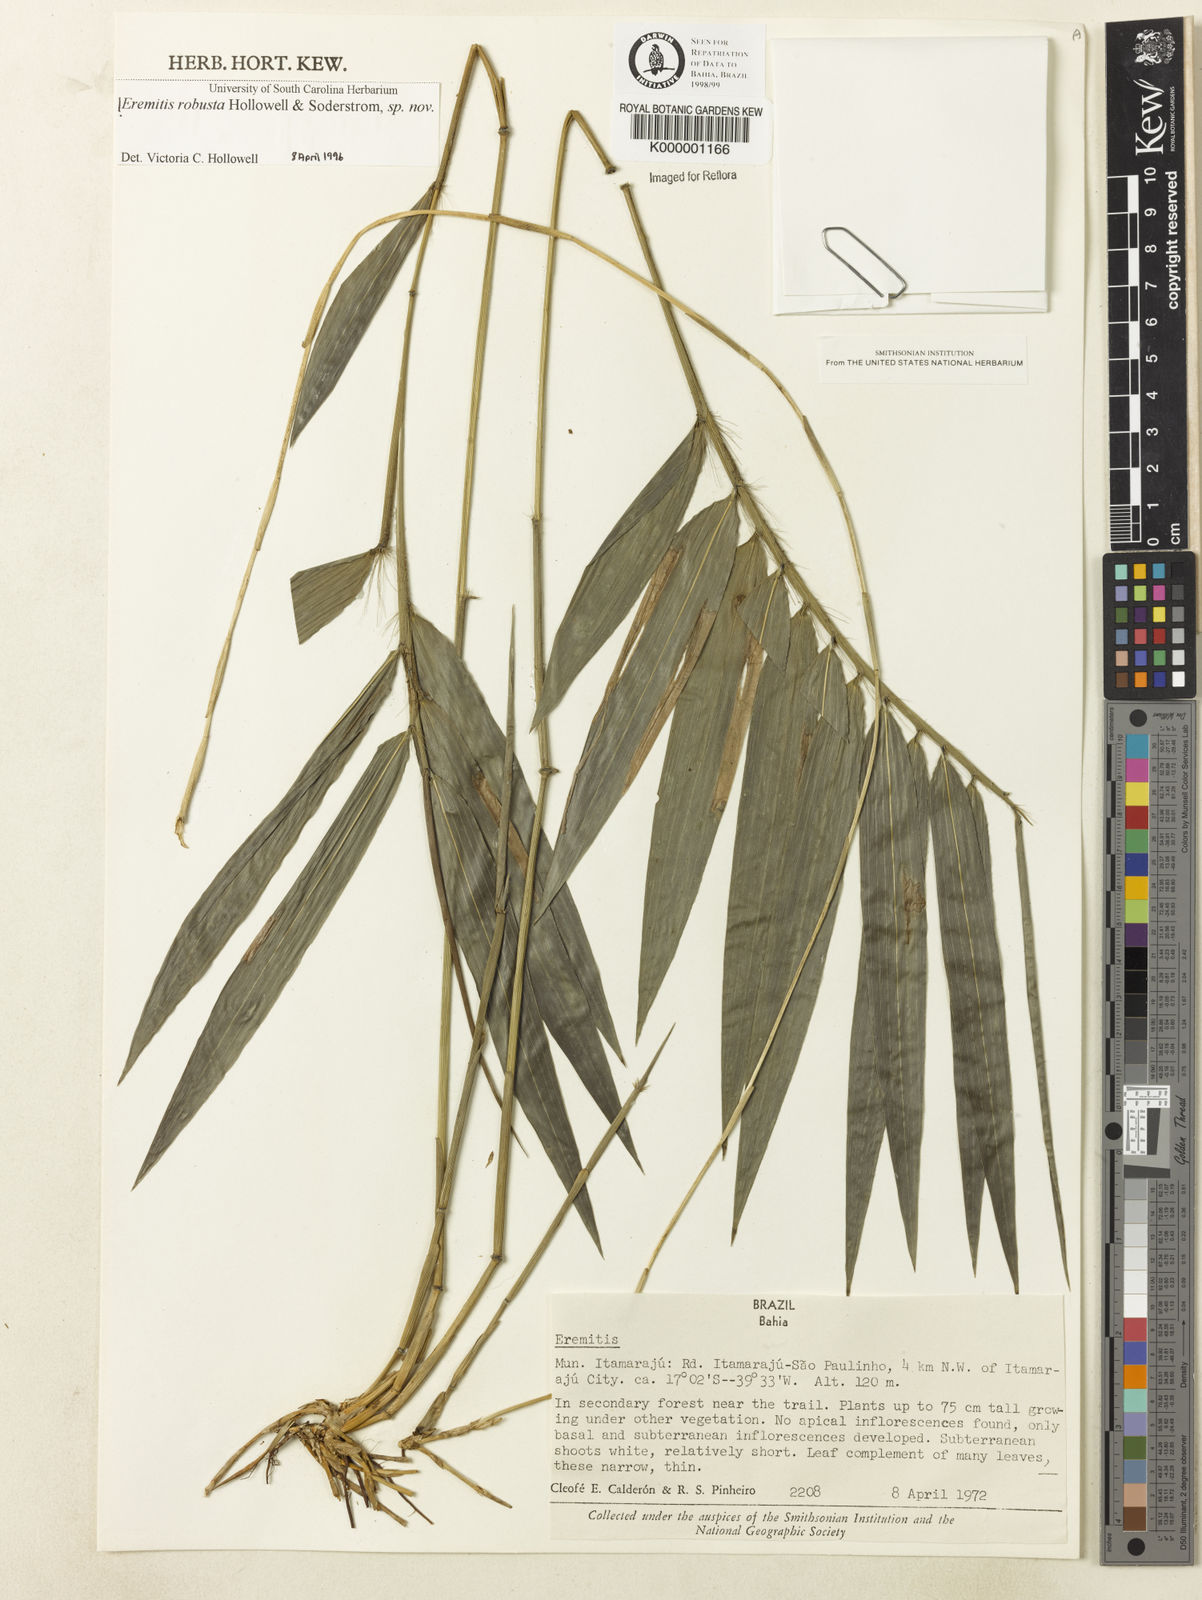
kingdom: Plantae
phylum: Tracheophyta
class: Liliopsida
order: Poales
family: Poaceae
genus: Eremitis
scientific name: Eremitis
